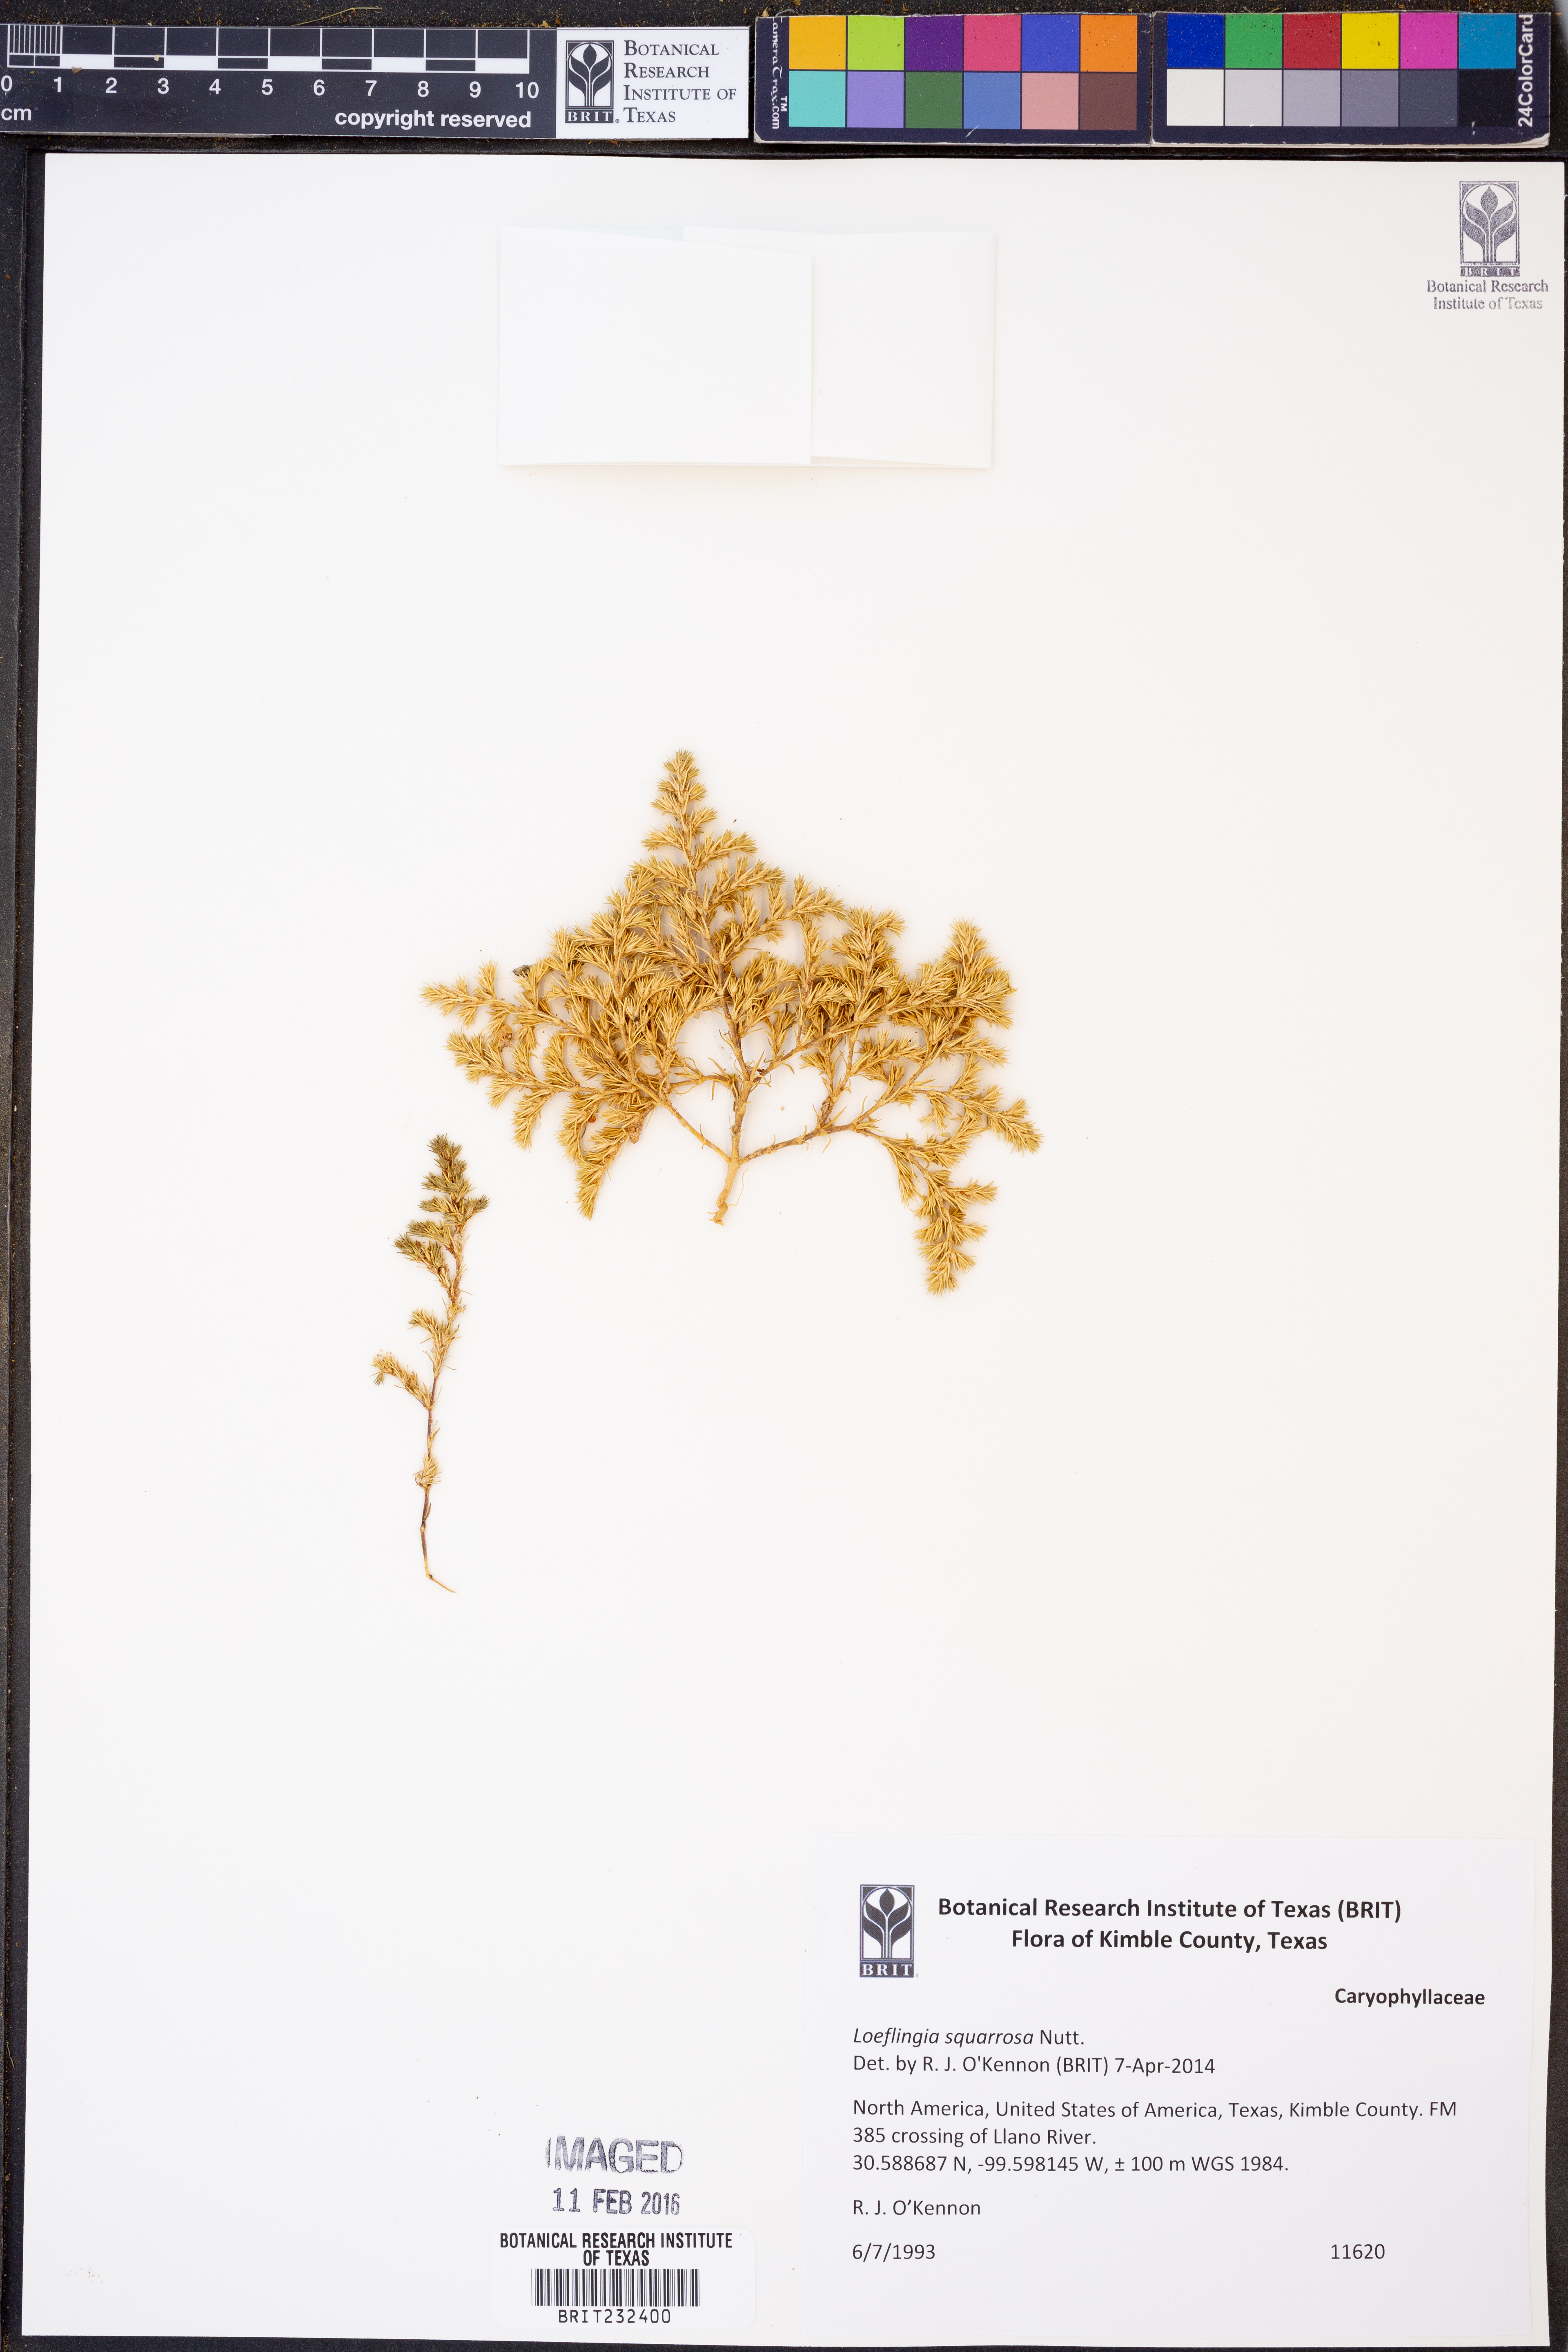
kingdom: Plantae
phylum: Tracheophyta
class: Magnoliopsida
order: Caryophyllales
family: Caryophyllaceae
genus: Loeflingia
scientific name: Loeflingia squarrosa
